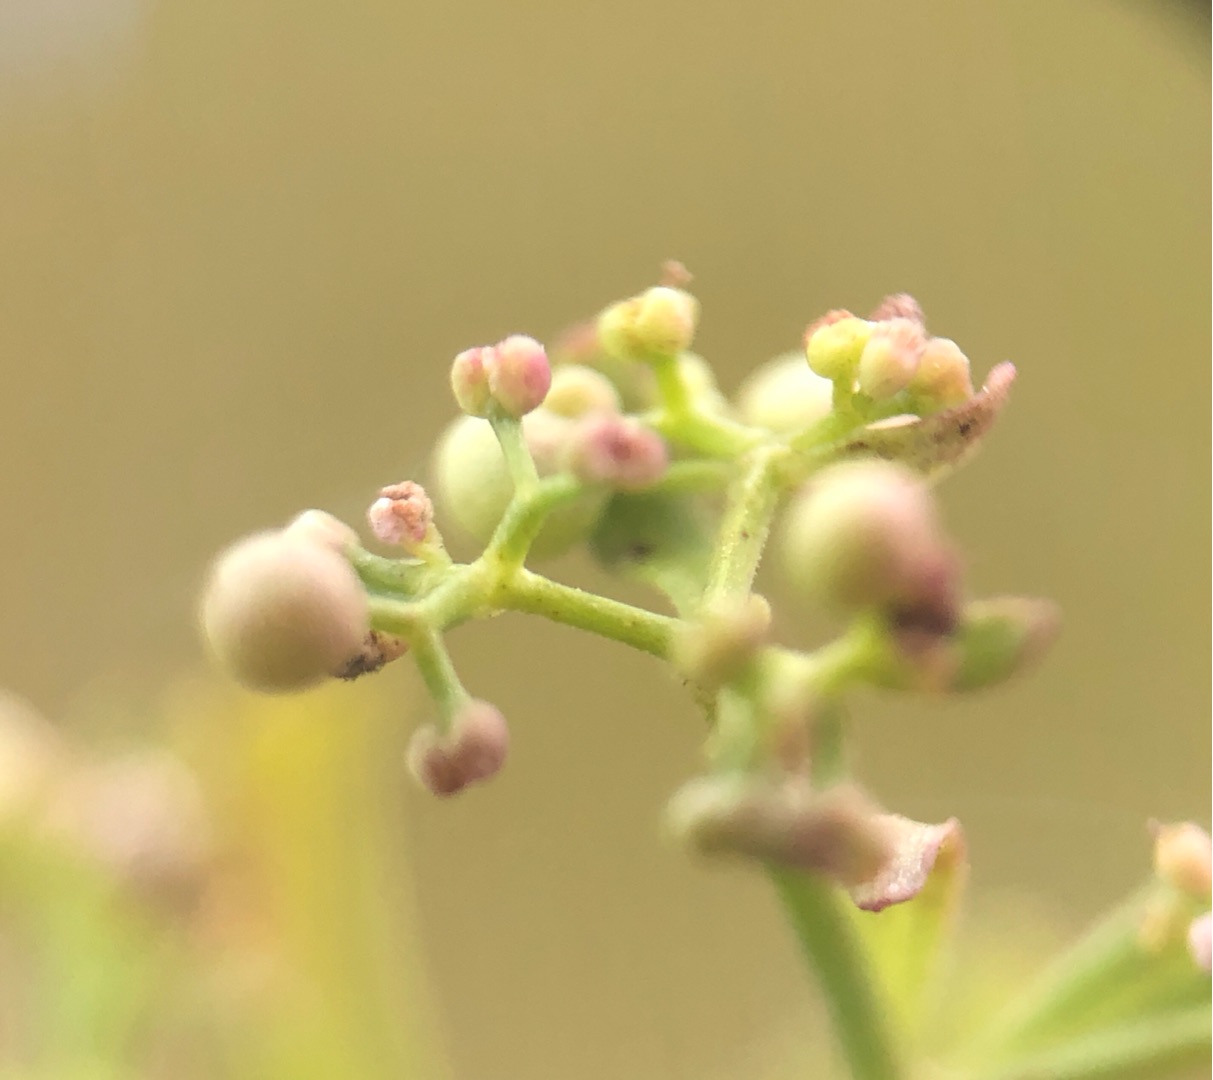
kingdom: Plantae
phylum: Tracheophyta
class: Magnoliopsida
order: Gentianales
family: Rubiaceae
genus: Galium
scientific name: Galium palustre
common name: Kær-snerre
